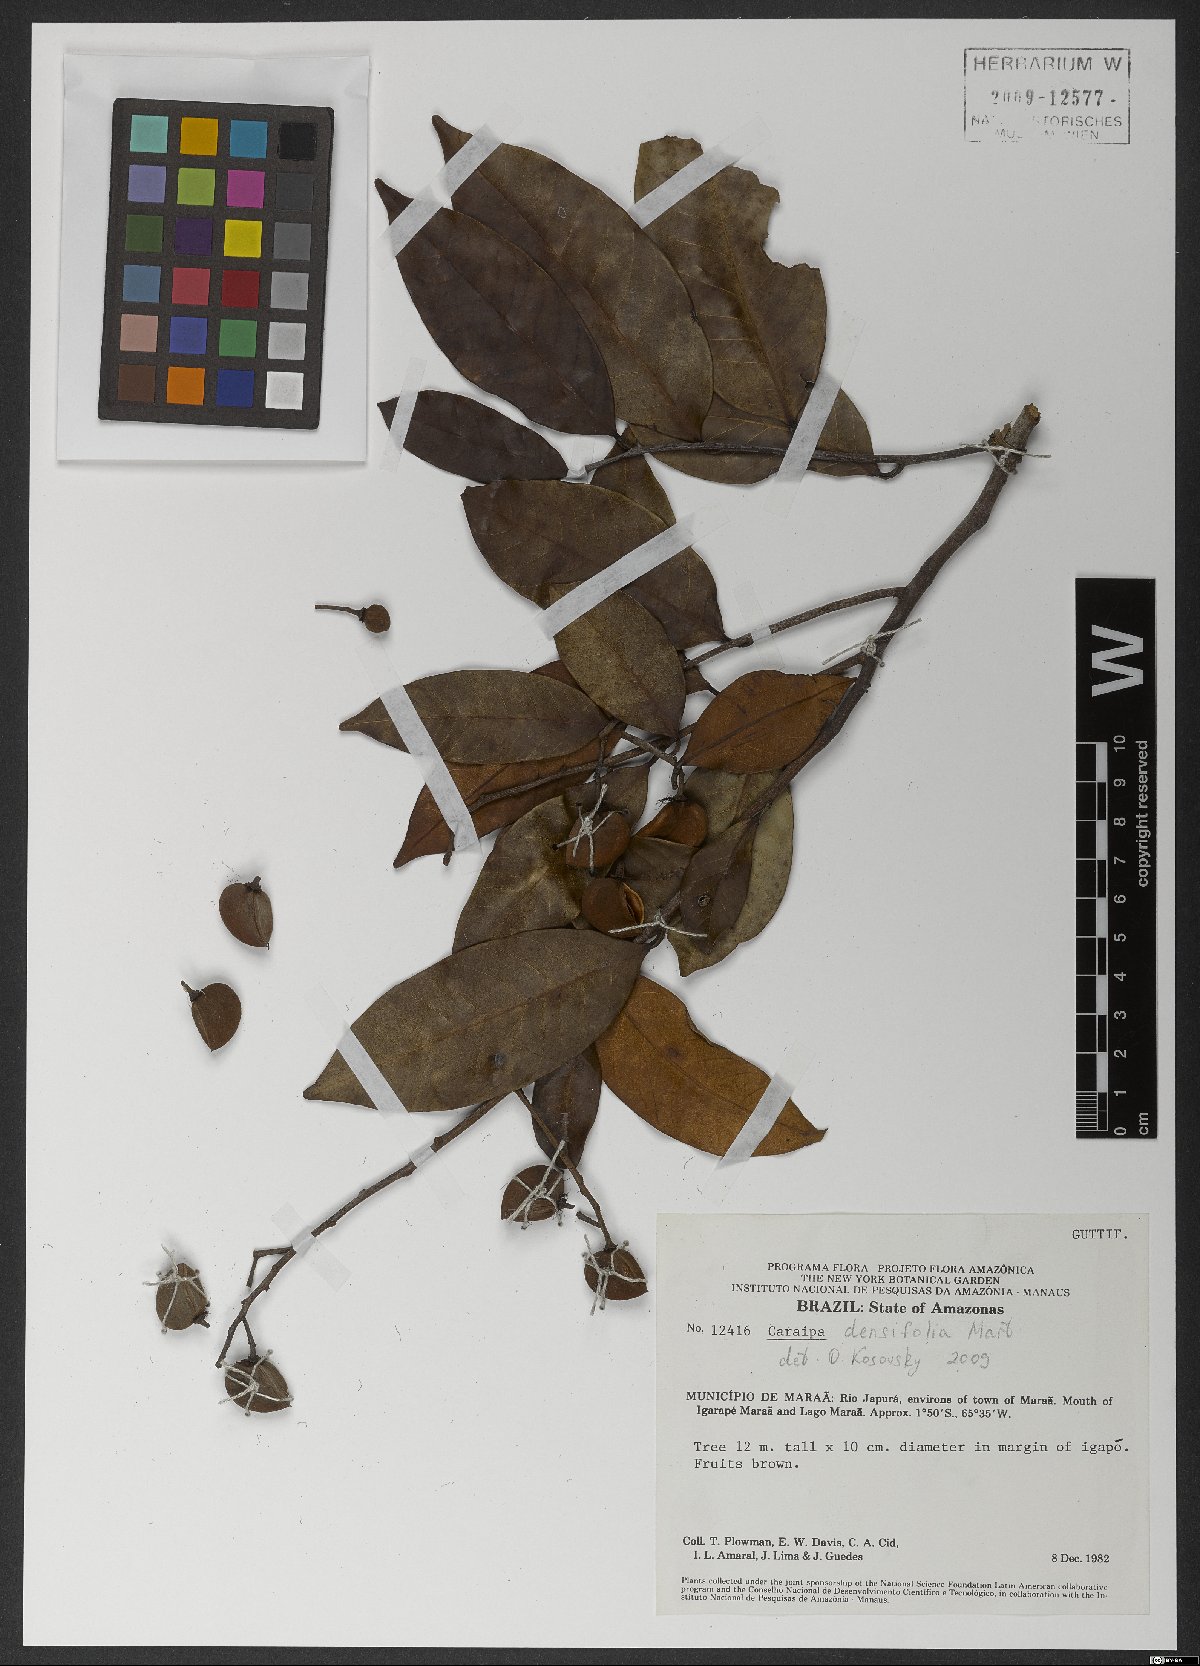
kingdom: Plantae
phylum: Tracheophyta
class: Magnoliopsida
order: Malpighiales
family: Calophyllaceae
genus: Caraipa
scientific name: Caraipa densifolia
